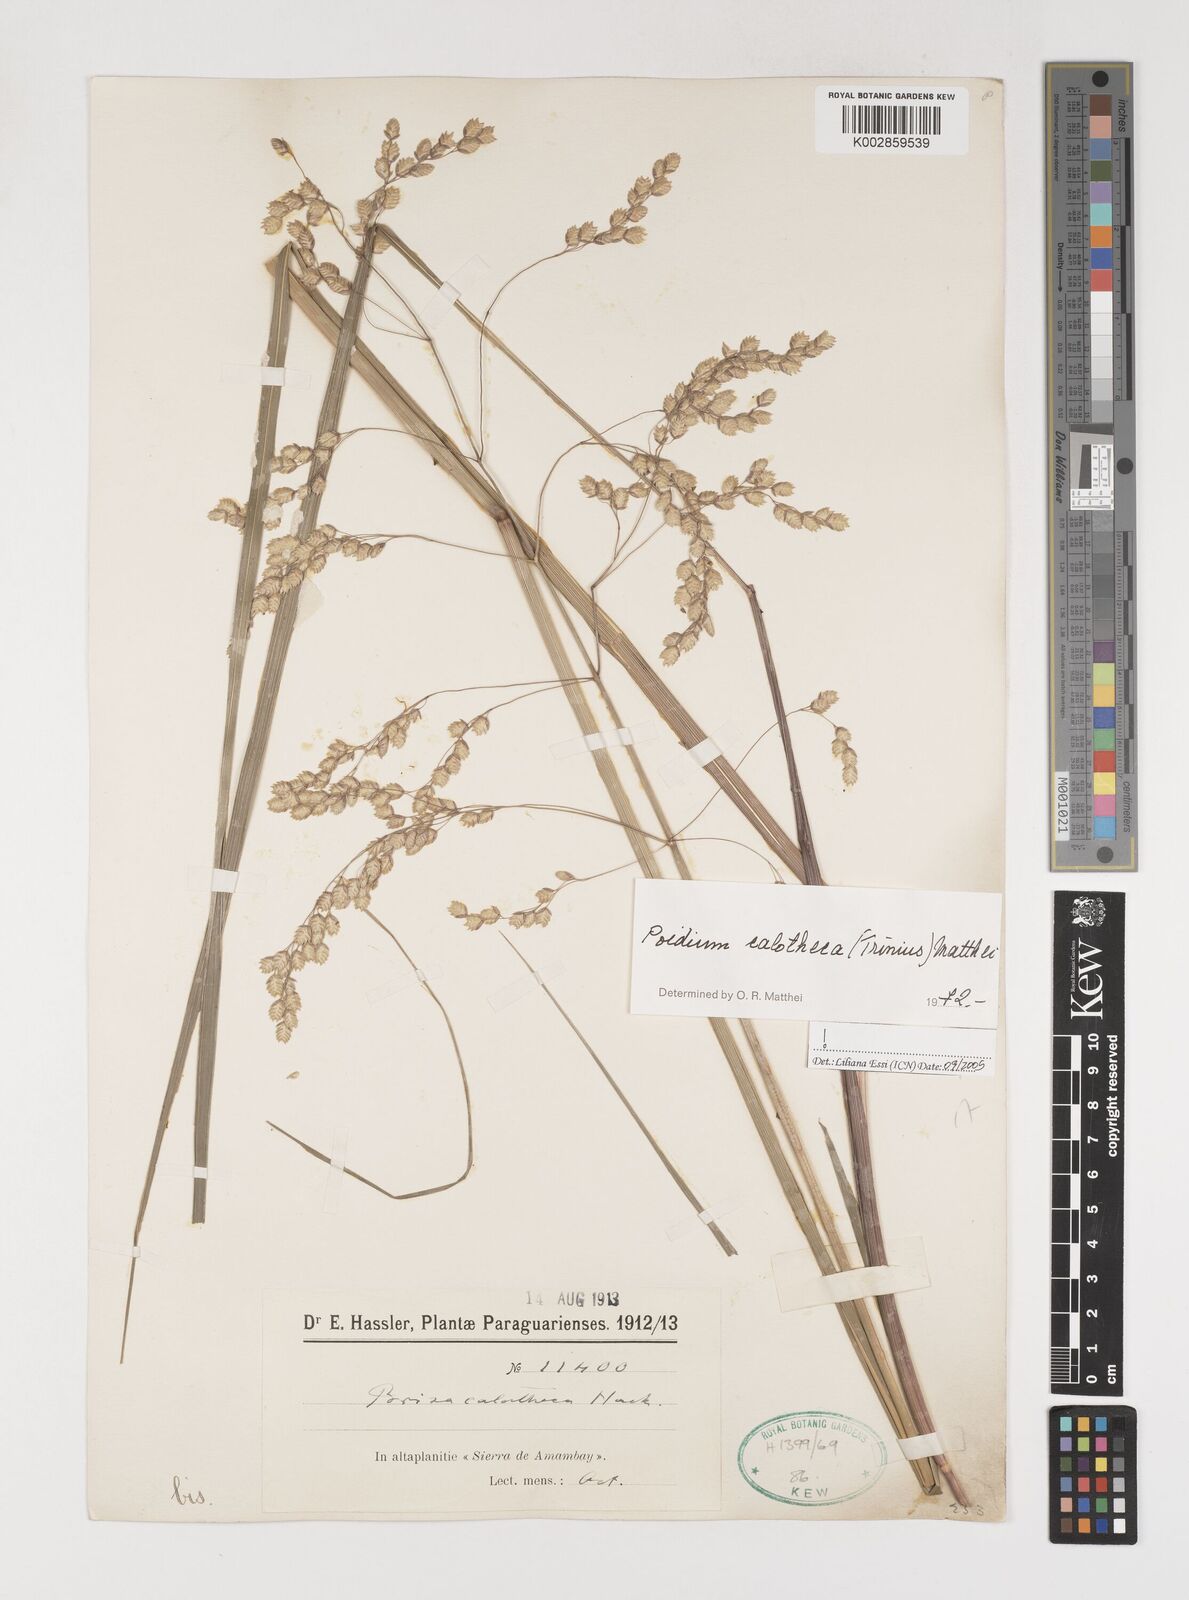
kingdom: Plantae
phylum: Tracheophyta
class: Liliopsida
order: Poales
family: Poaceae
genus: Poidium
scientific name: Poidium calotheca
